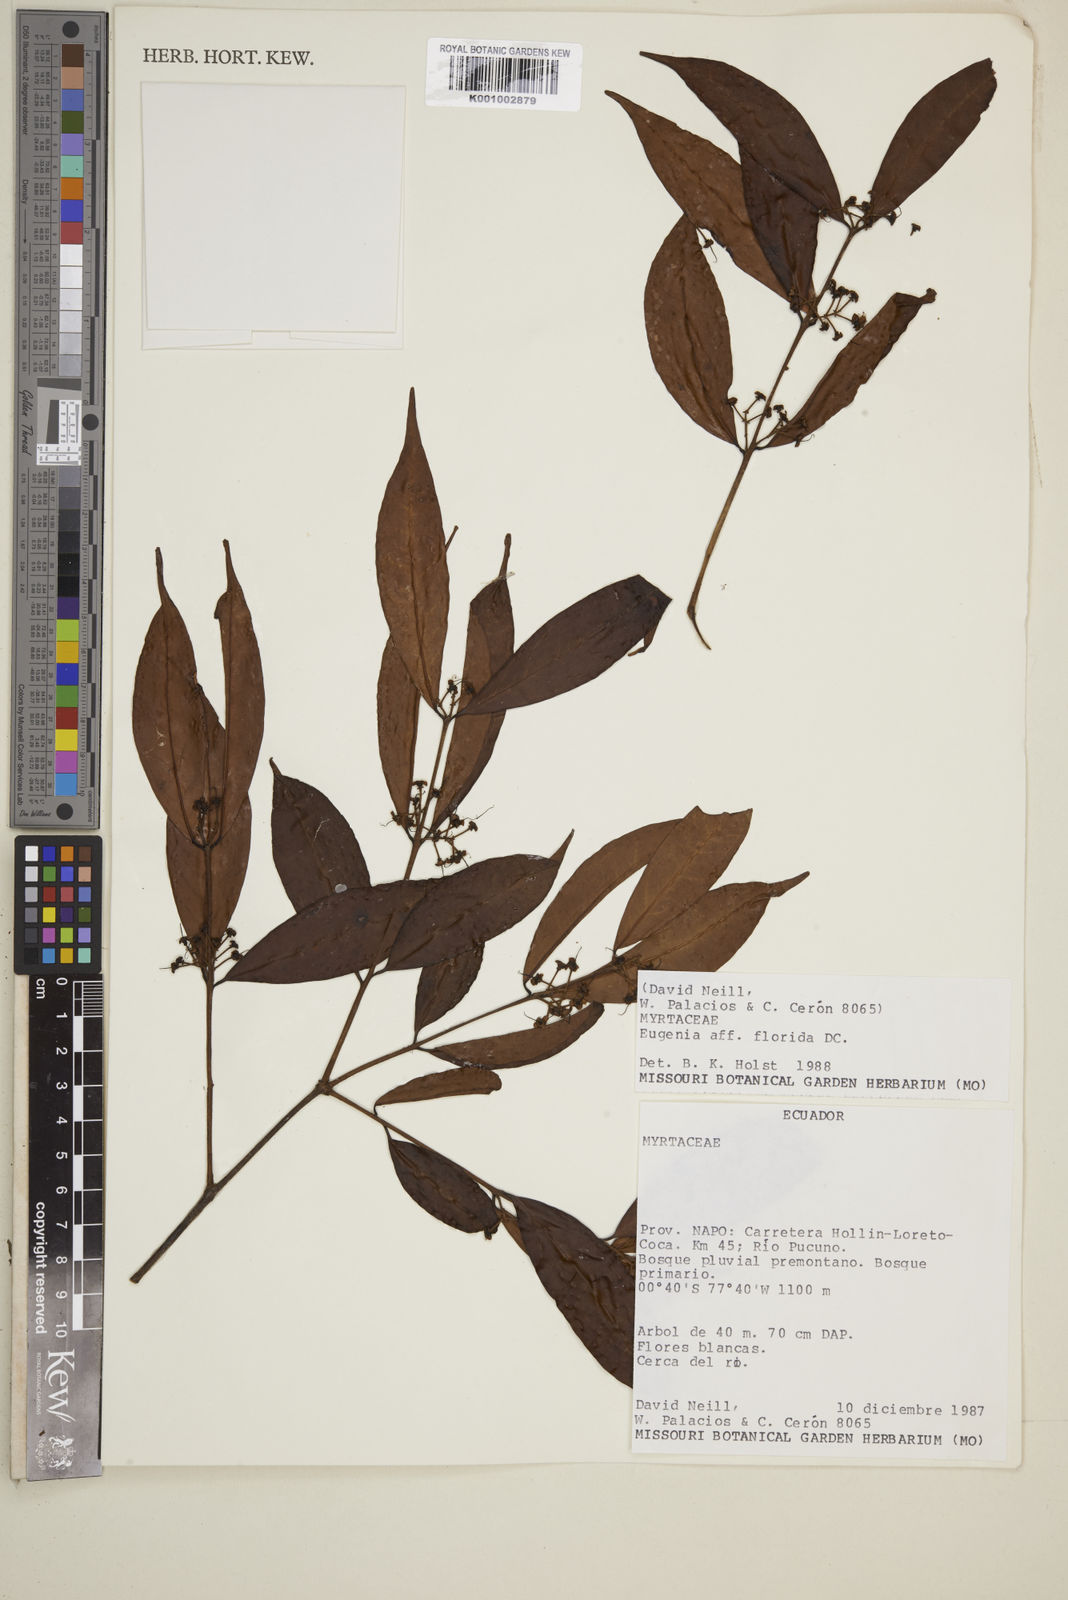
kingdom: Plantae
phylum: Tracheophyta
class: Magnoliopsida
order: Myrtales
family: Myrtaceae
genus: Eugenia
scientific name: Eugenia florida
